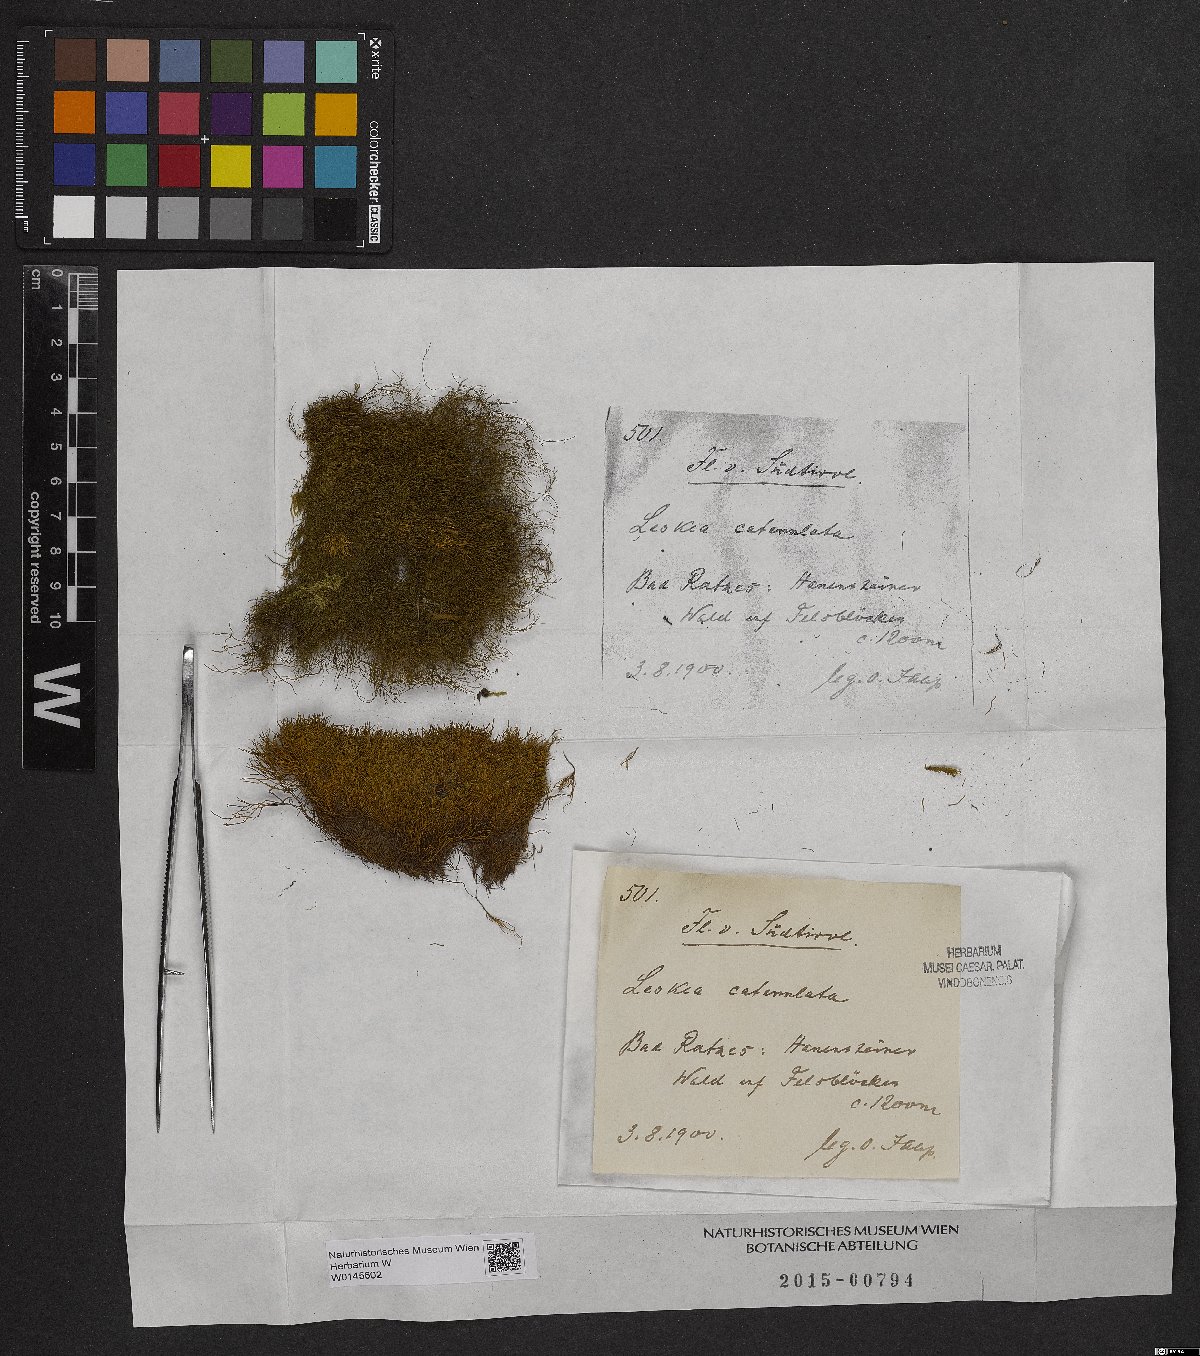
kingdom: Plantae
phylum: Bryophyta
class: Bryopsida
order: Hypnales
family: Pseudoleskeellaceae
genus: Pseudoleskeella
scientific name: Pseudoleskeella catenulata
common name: Chained leskea
